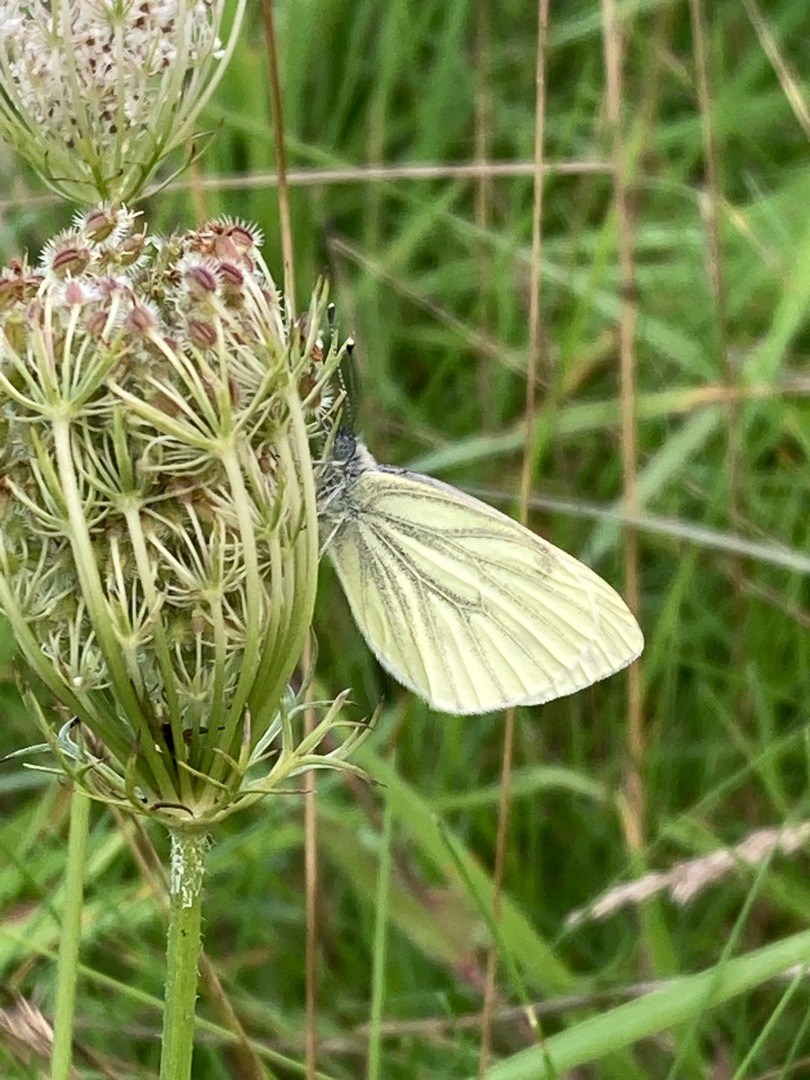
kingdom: Animalia
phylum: Arthropoda
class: Insecta
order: Lepidoptera
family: Pieridae
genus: Pieris
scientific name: Pieris napi
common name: Grønåret kålsommerfugl
